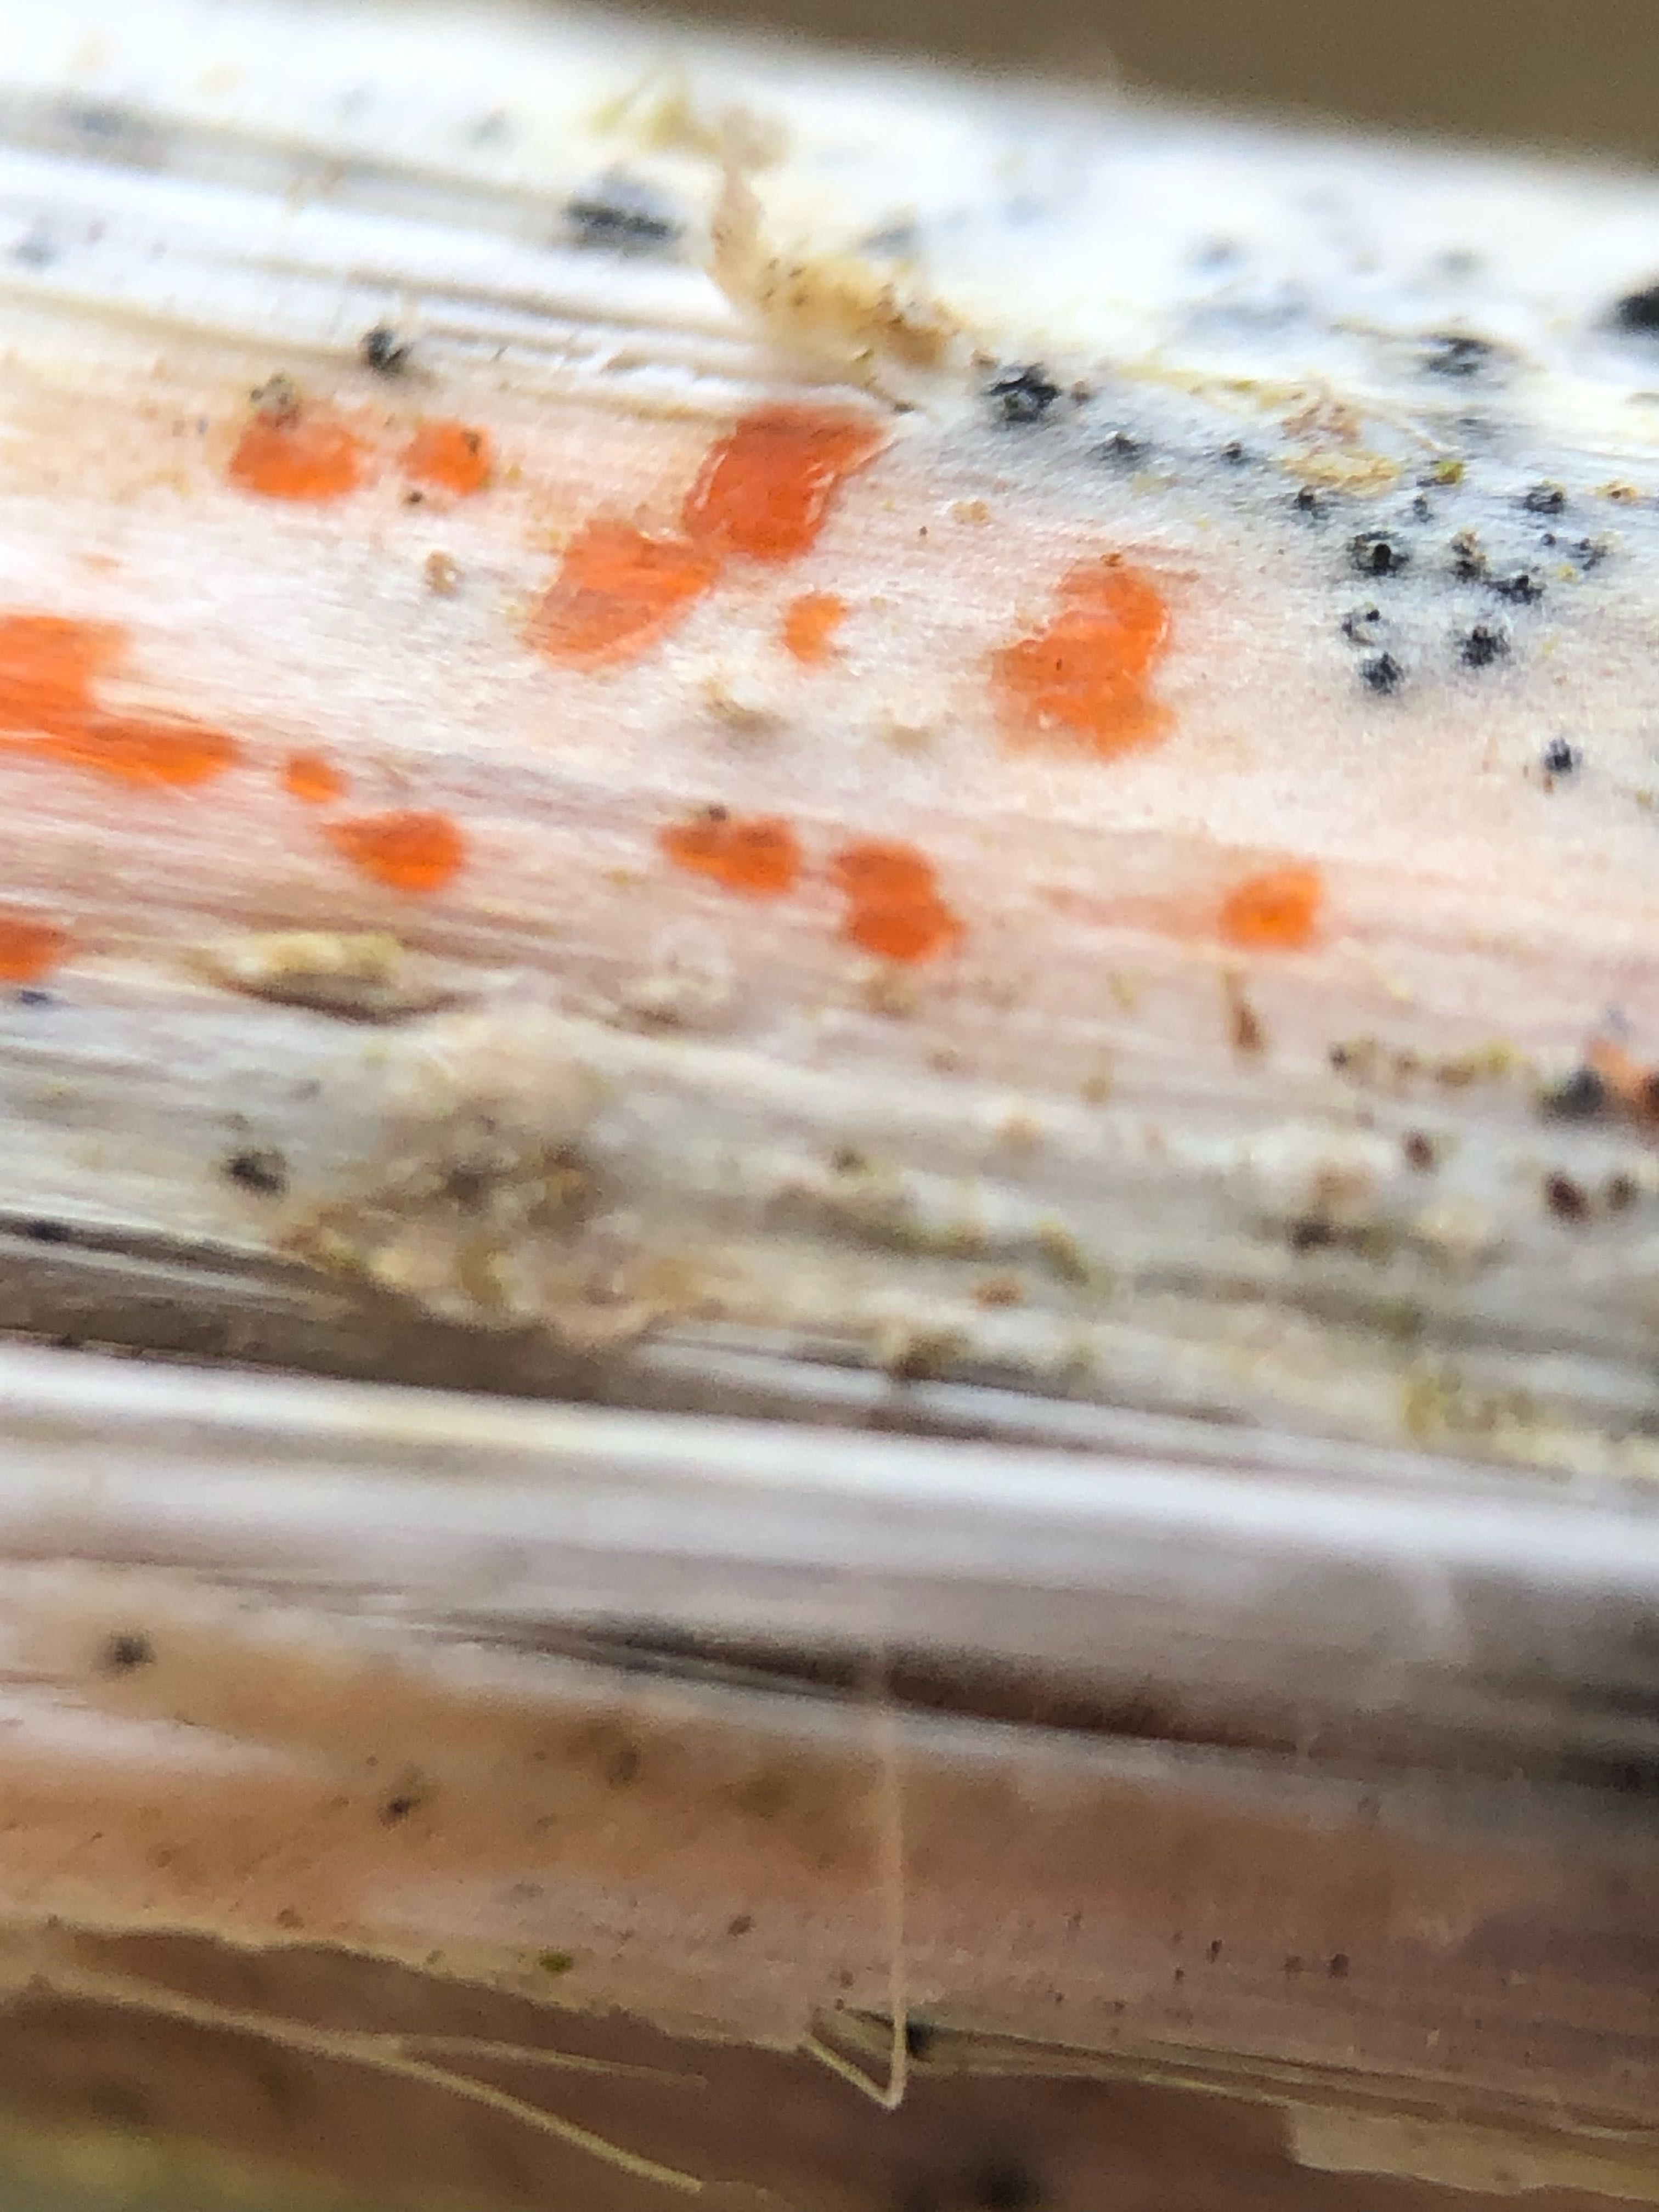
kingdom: Fungi
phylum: Ascomycota
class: Leotiomycetes
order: Helotiales
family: Calloriaceae
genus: Calloria
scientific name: Calloria urticae
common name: nælde-orangeskive
